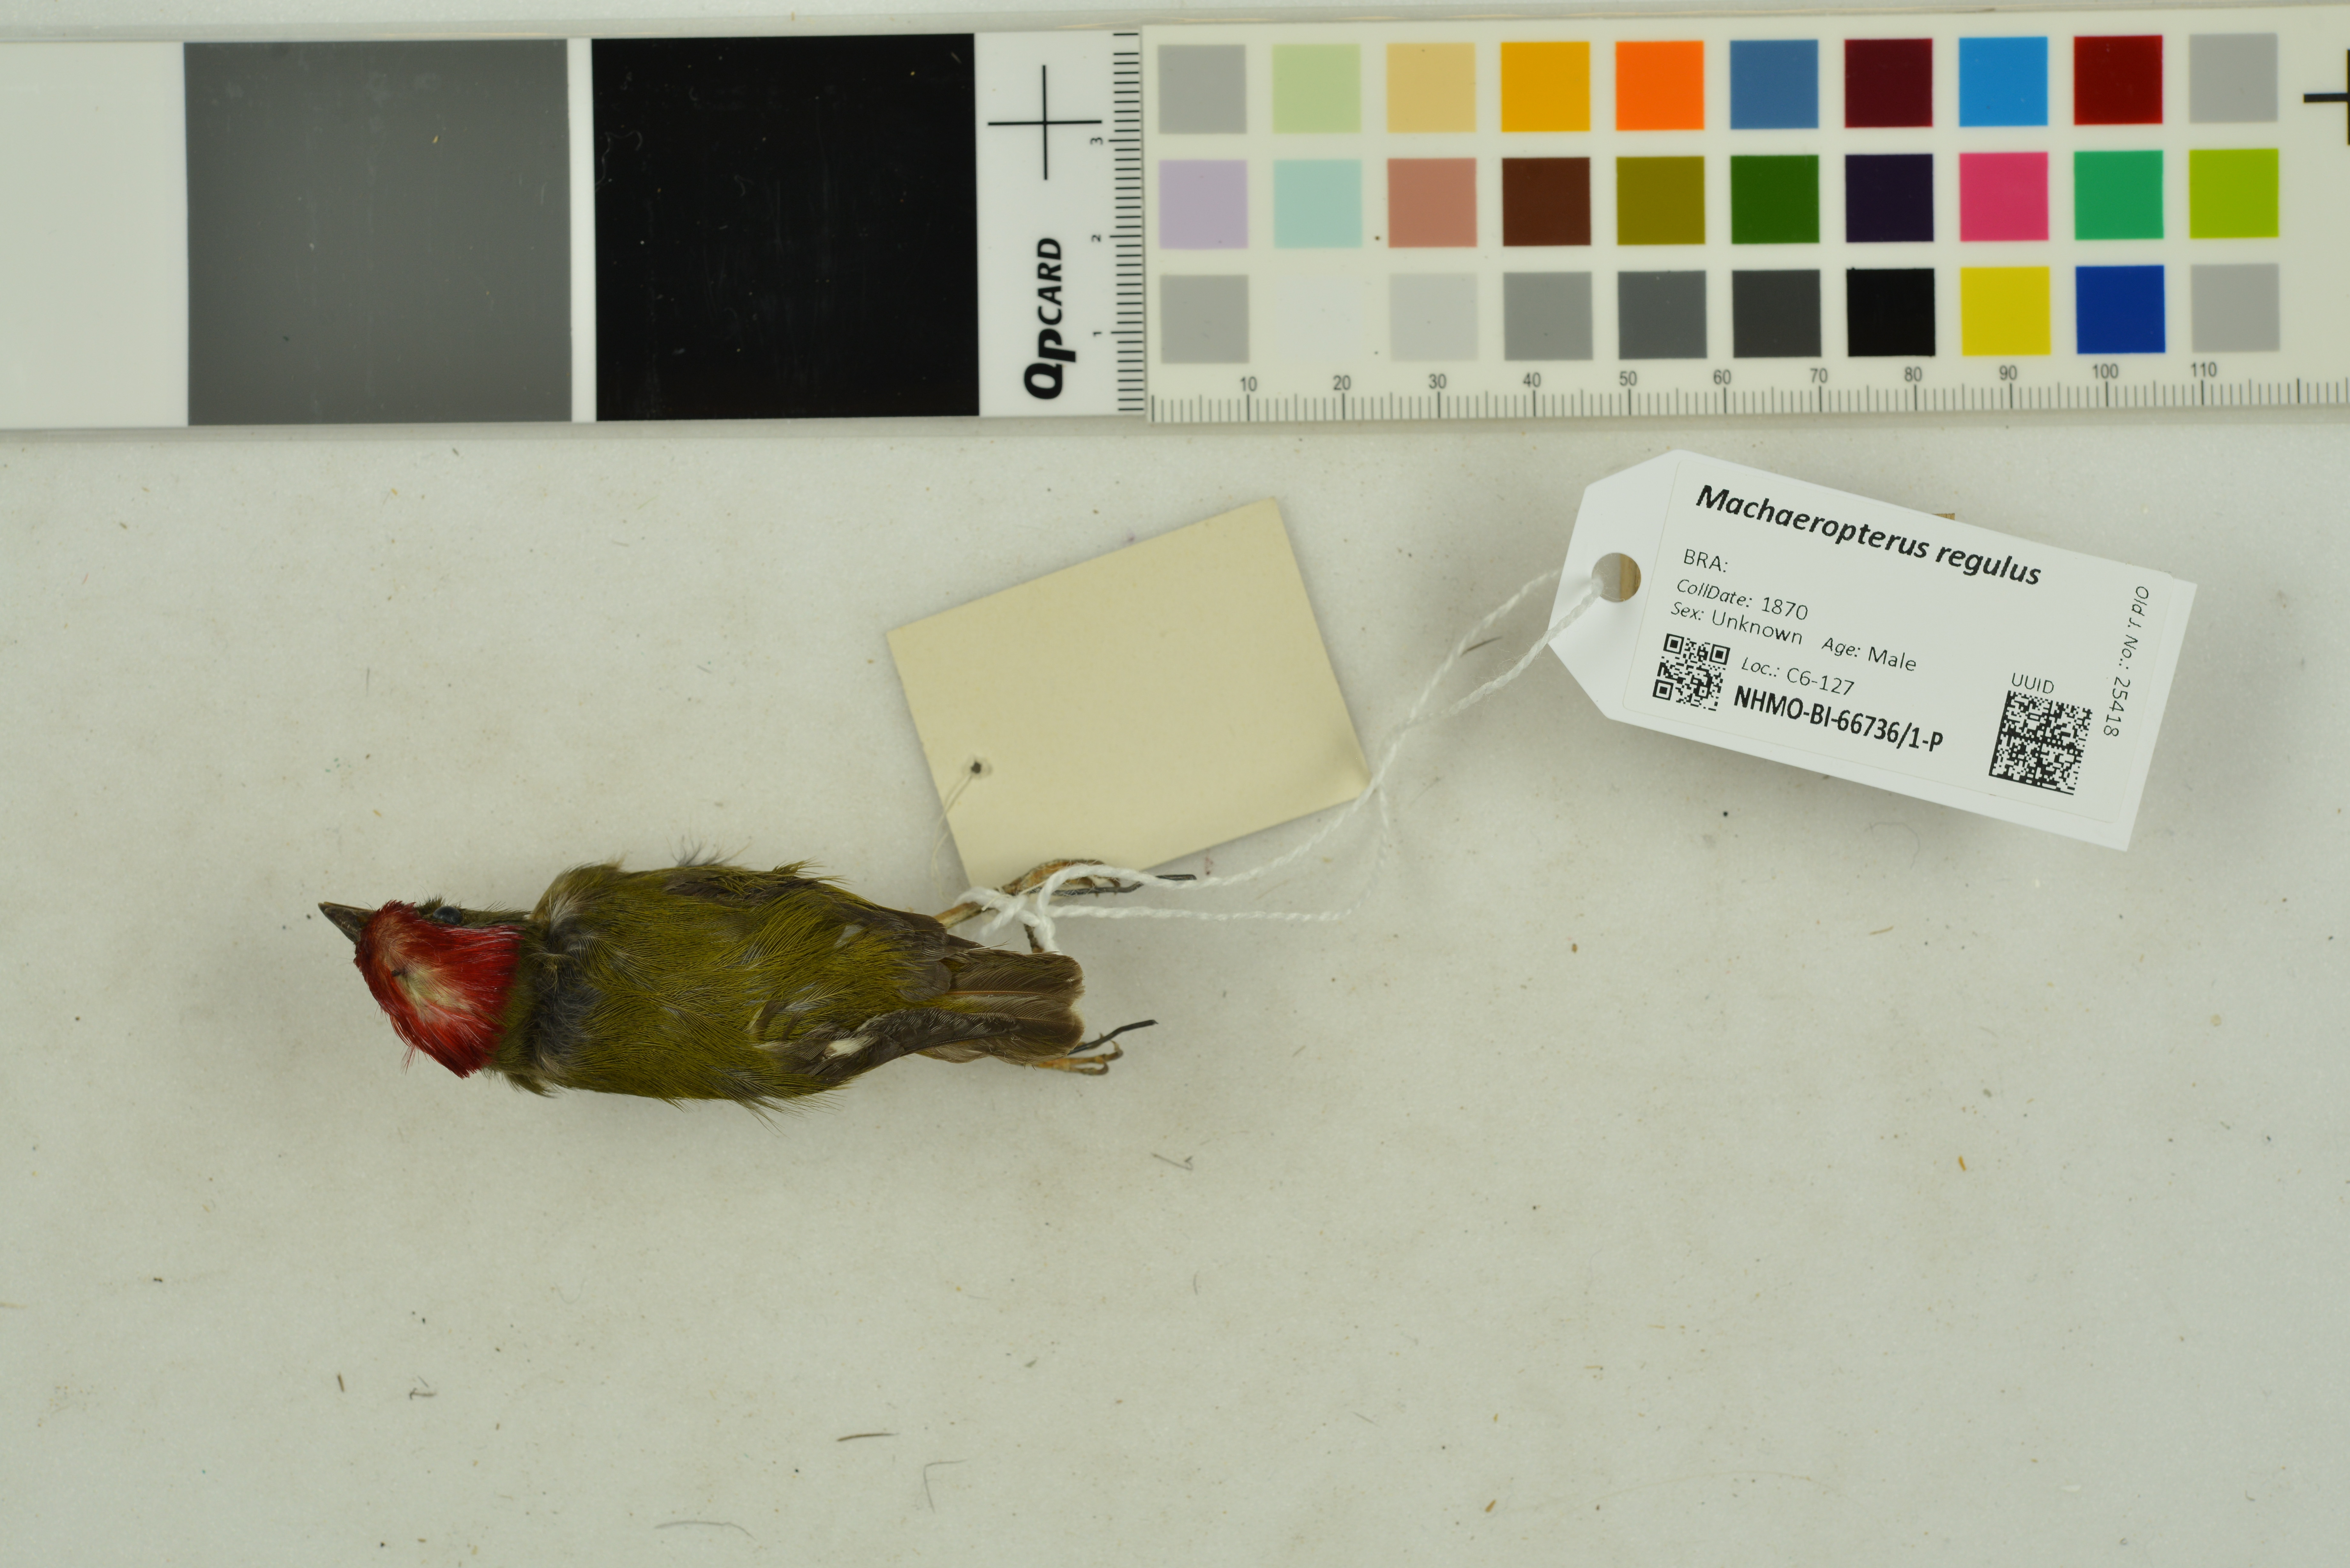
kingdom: Animalia
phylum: Chordata
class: Aves
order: Passeriformes
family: Pipridae
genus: Machaeropterus
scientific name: Machaeropterus regulus
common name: Eastern striped manakin
